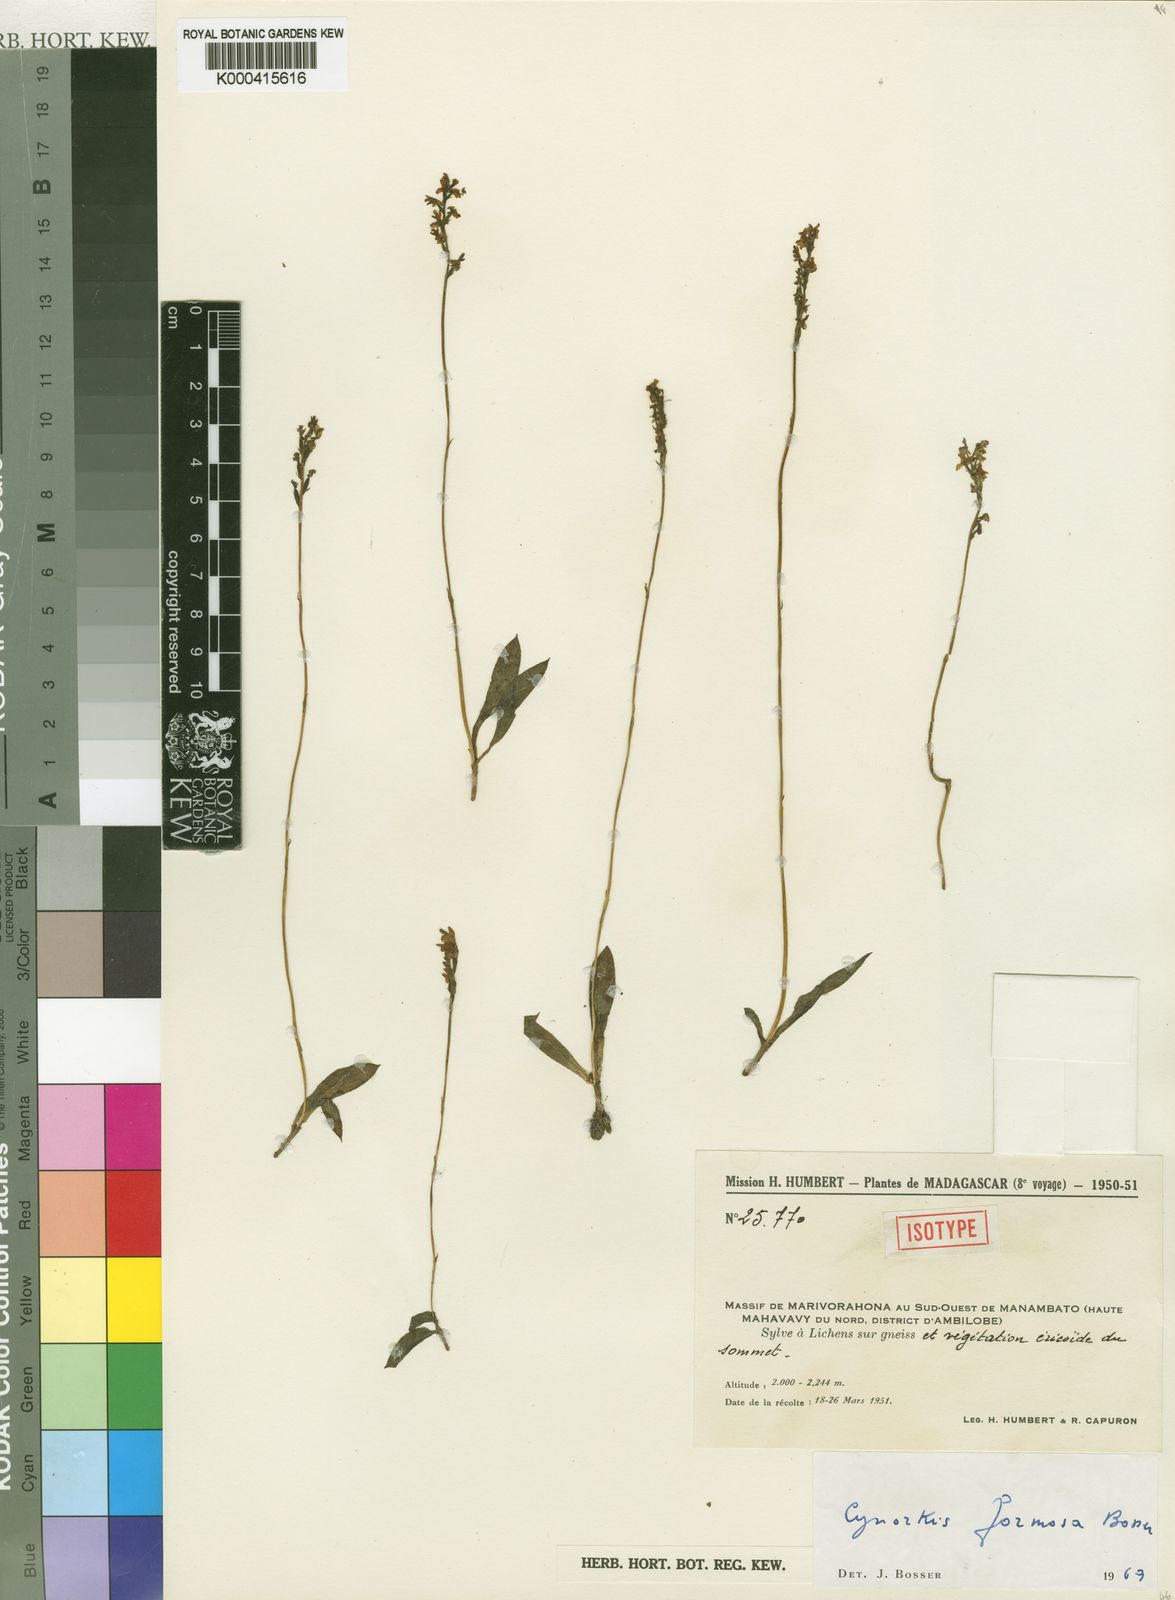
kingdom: Plantae
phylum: Tracheophyta
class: Liliopsida
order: Asparagales
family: Orchidaceae
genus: Cynorkis
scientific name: Cynorkis formosa
